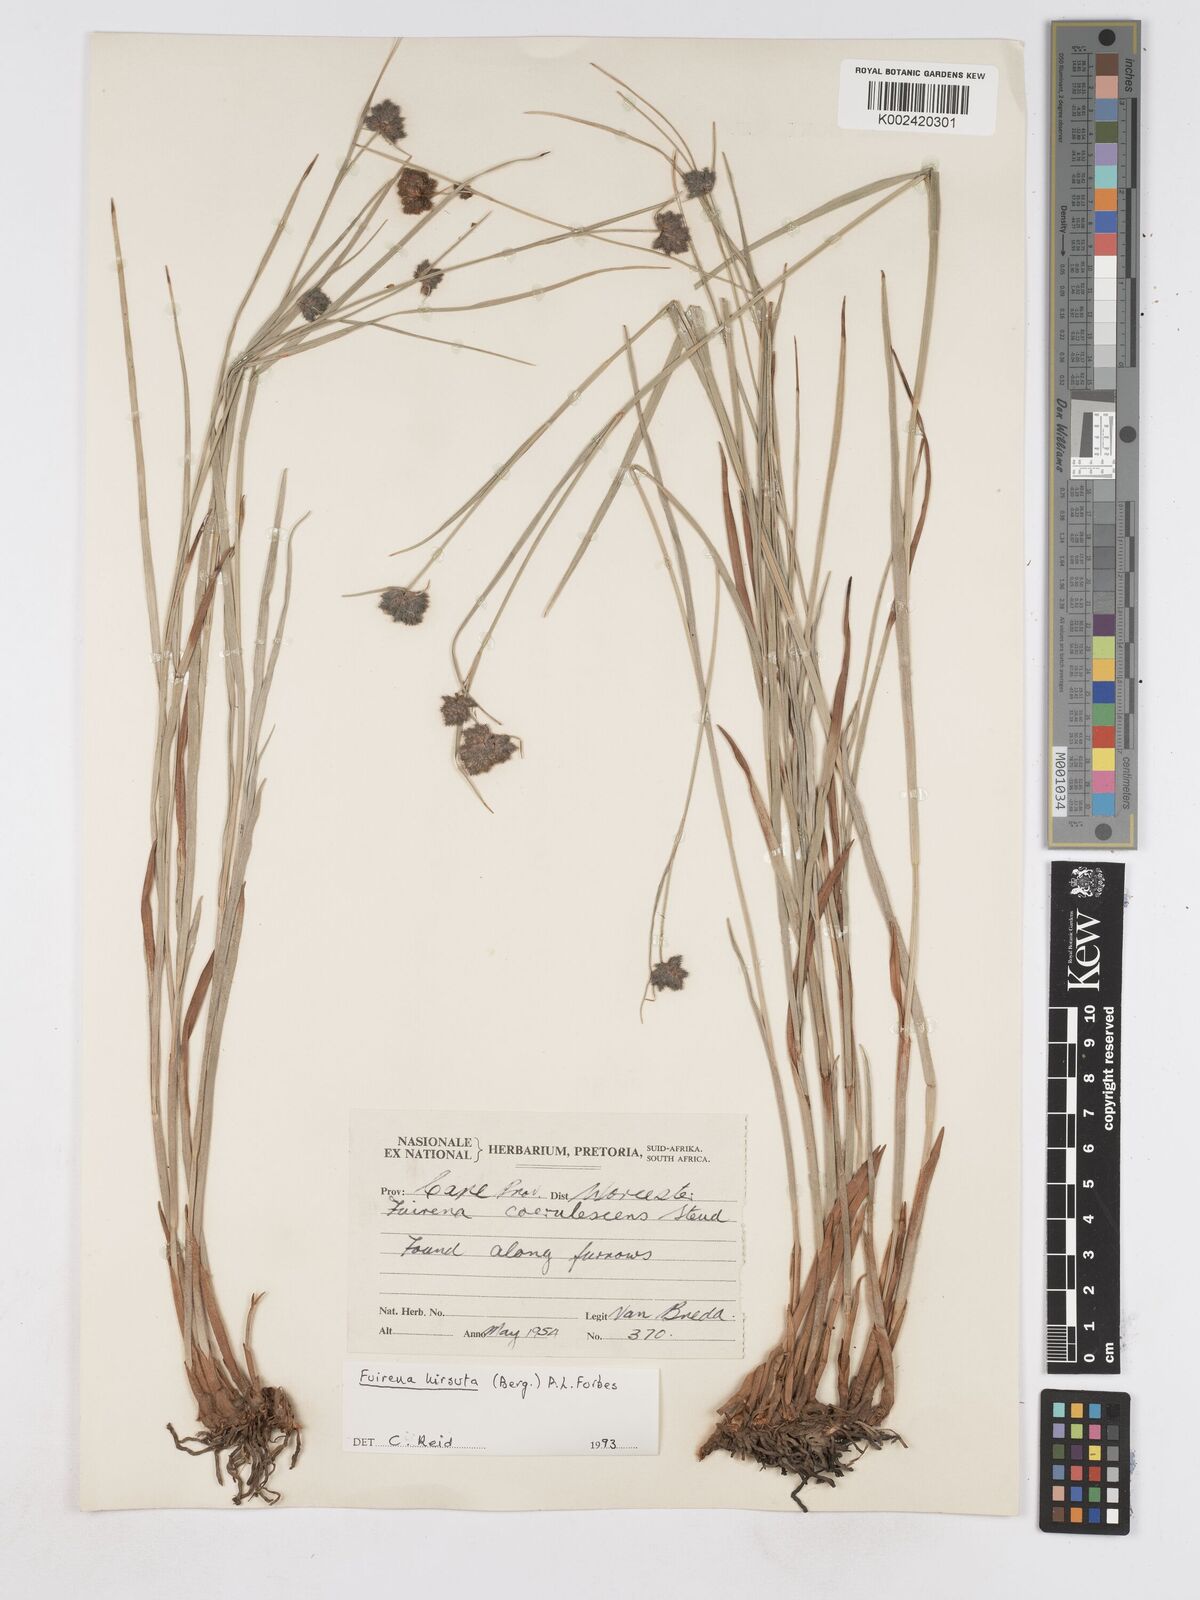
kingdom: Plantae
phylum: Tracheophyta
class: Liliopsida
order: Poales
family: Cyperaceae
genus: Fuirena
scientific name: Fuirena hirsuta
